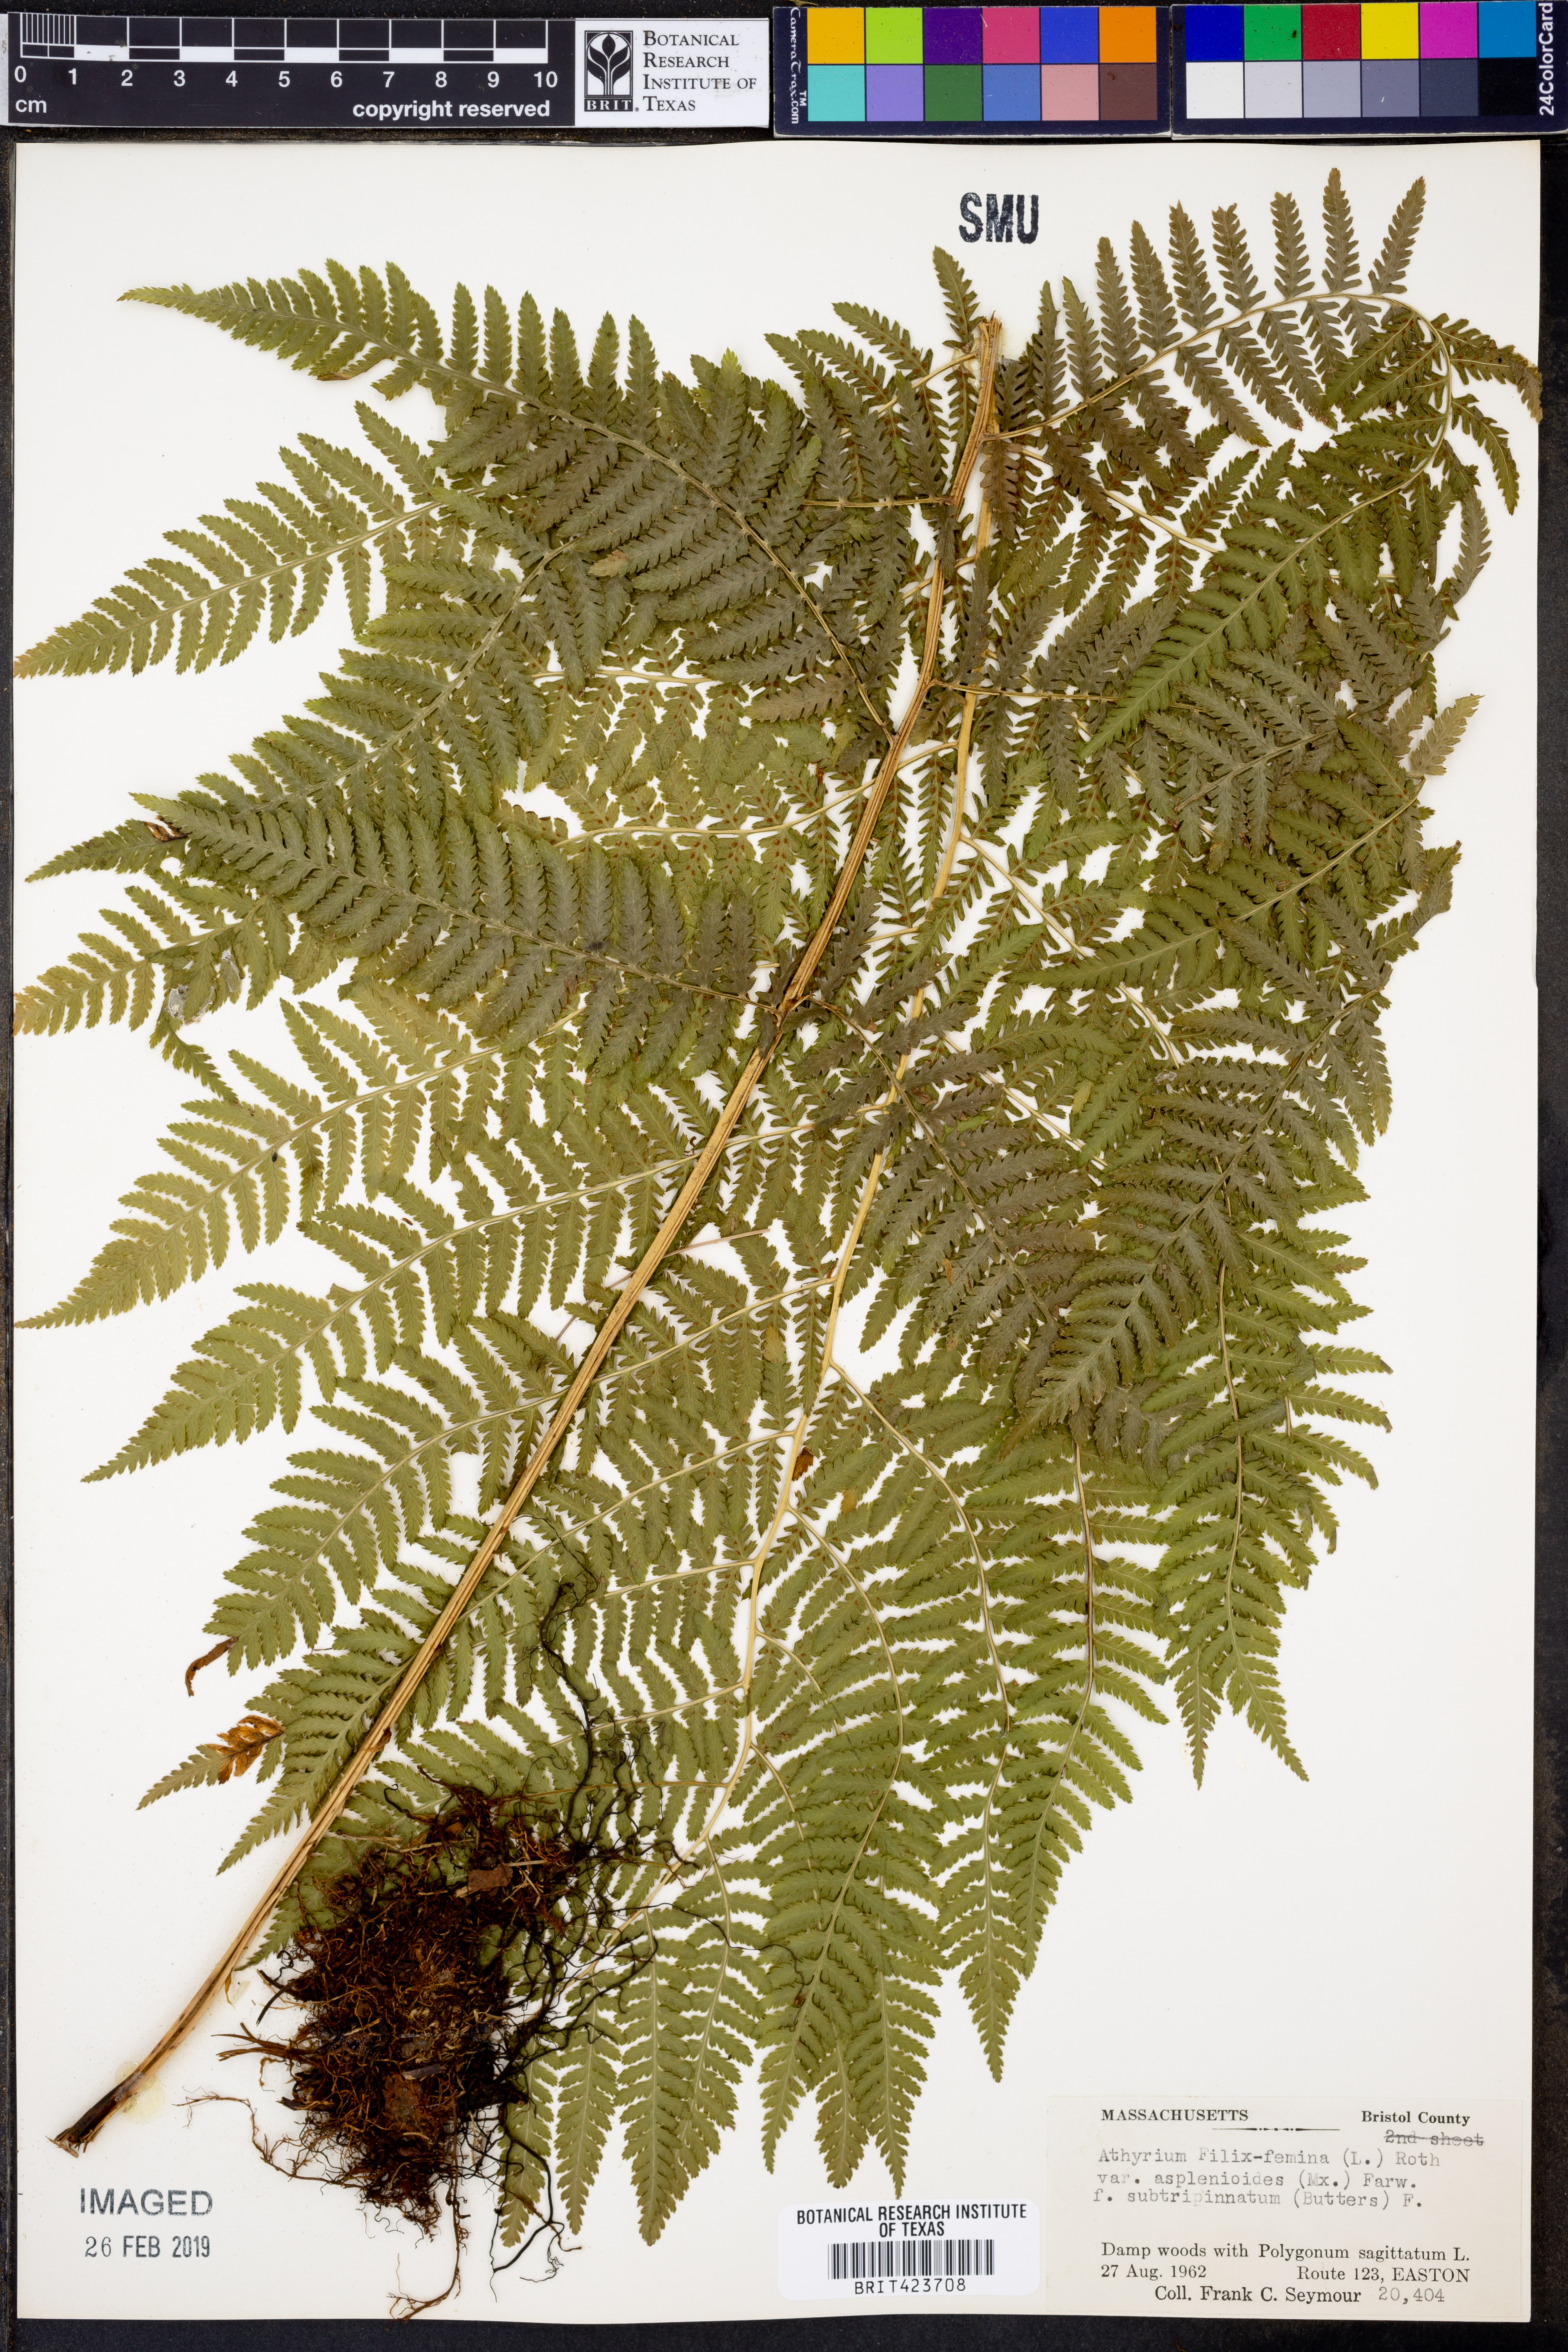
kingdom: Plantae
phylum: Tracheophyta
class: Polypodiopsida
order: Polypodiales
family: Athyriaceae
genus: Athyrium
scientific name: Athyrium asplenioides
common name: Southern lady fern
